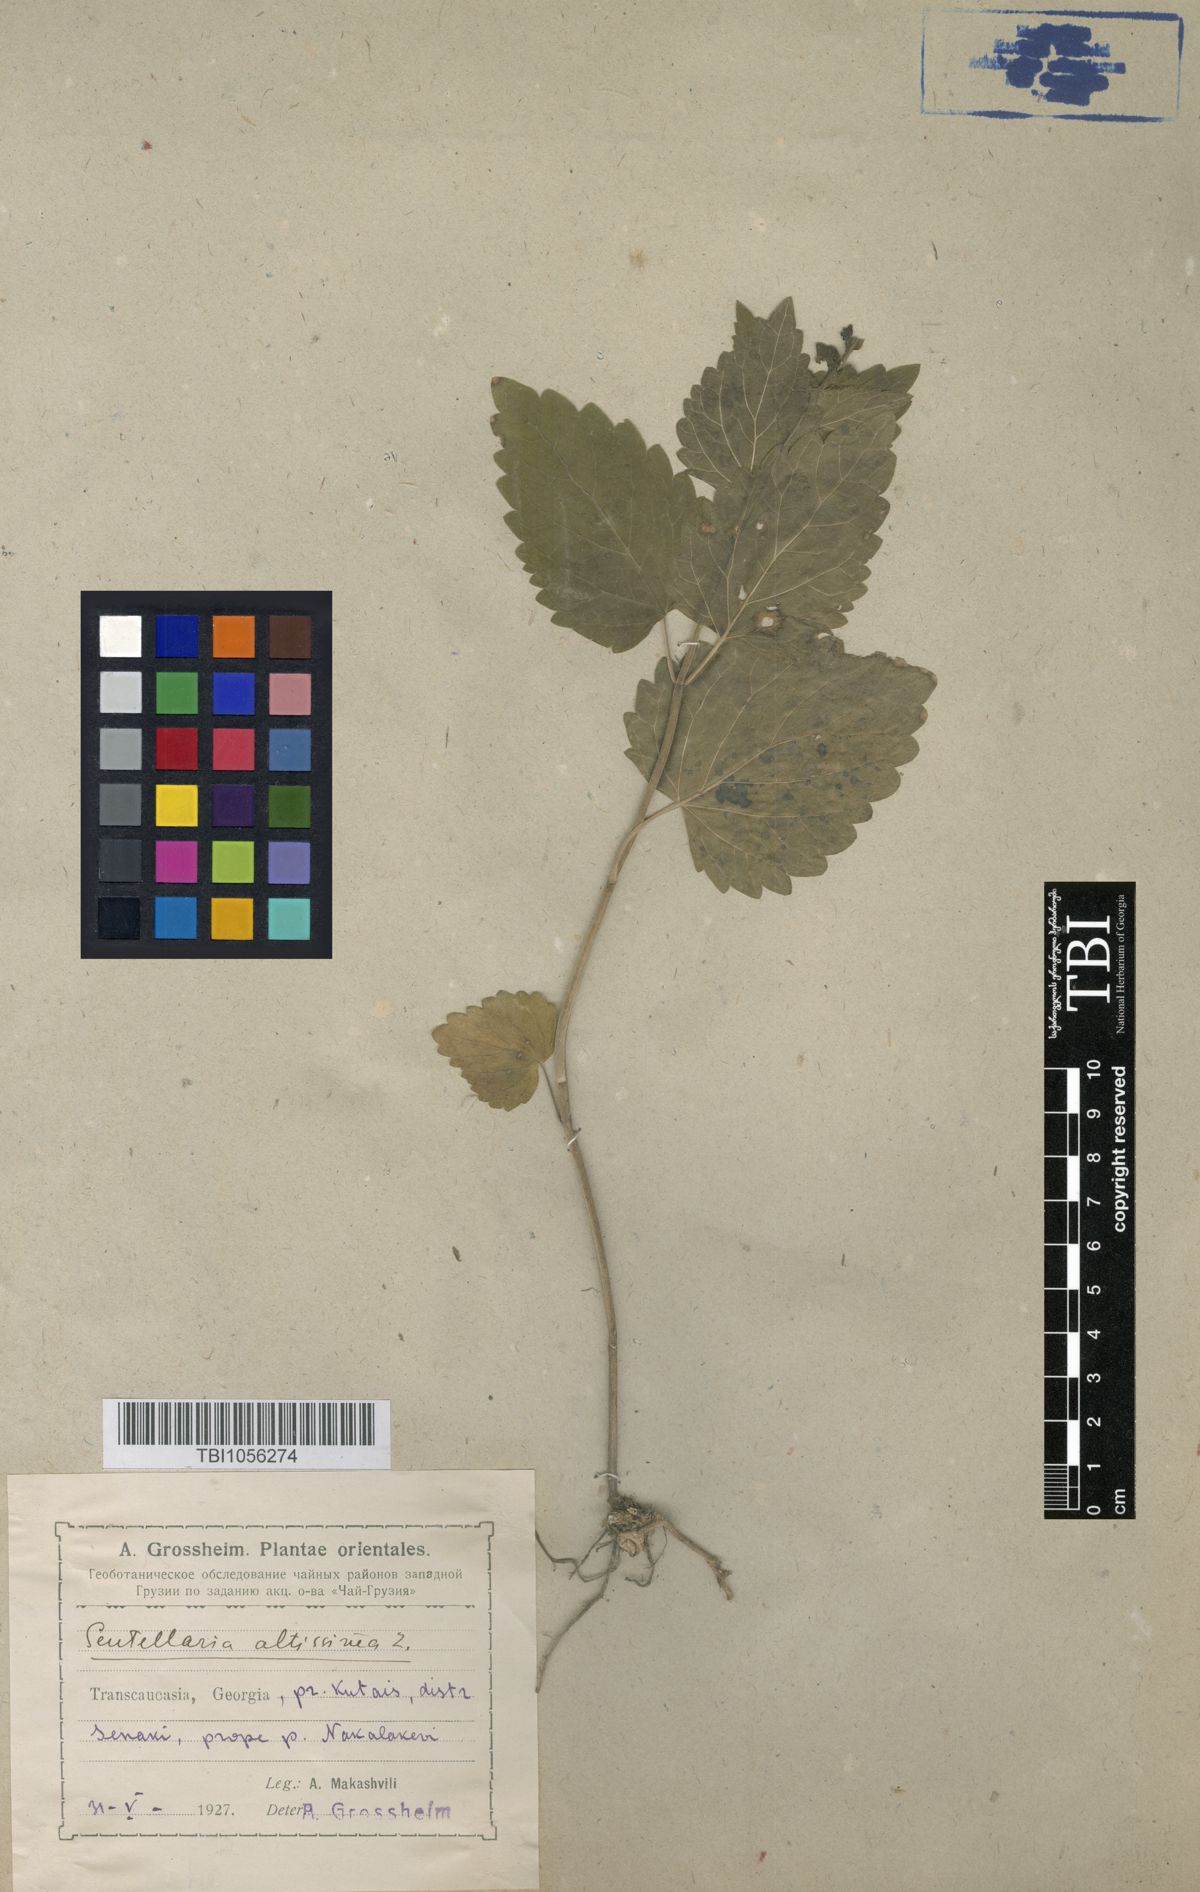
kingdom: Plantae
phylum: Tracheophyta
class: Magnoliopsida
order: Lamiales
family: Lamiaceae
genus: Scutellaria
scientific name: Scutellaria altissima
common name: Somerset skullcap
